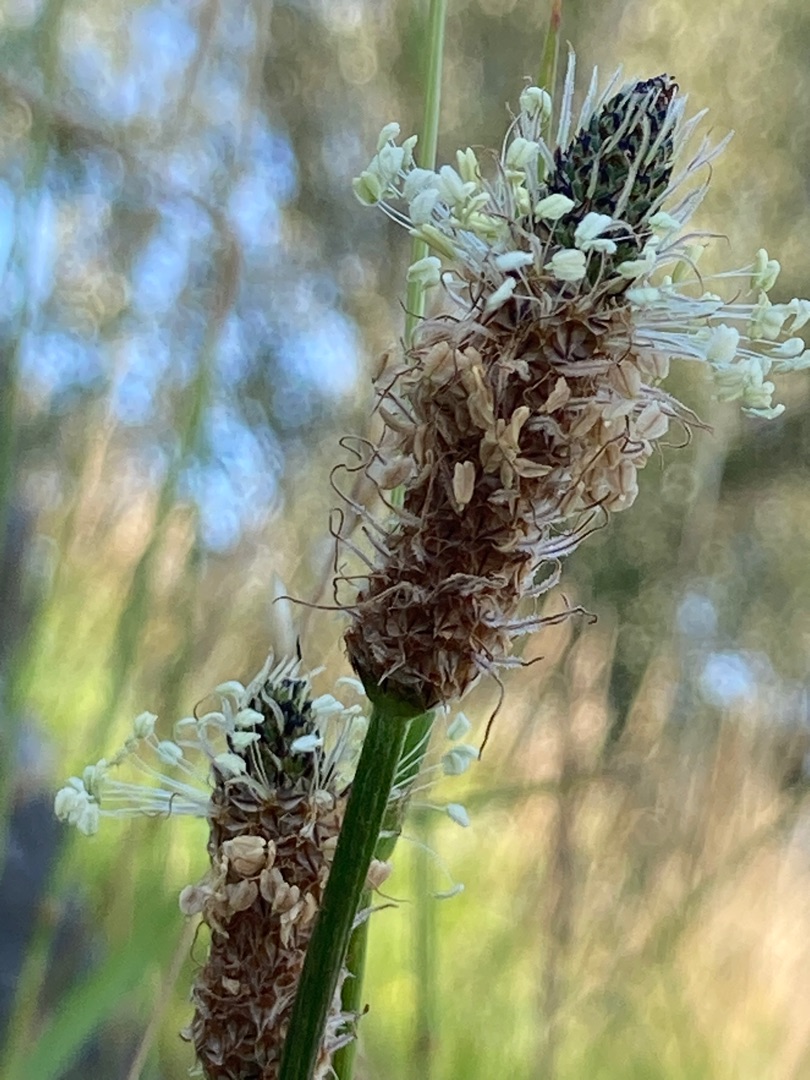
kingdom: Plantae
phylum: Tracheophyta
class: Magnoliopsida
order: Lamiales
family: Plantaginaceae
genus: Plantago
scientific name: Plantago lanceolata
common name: Lancet-vejbred
